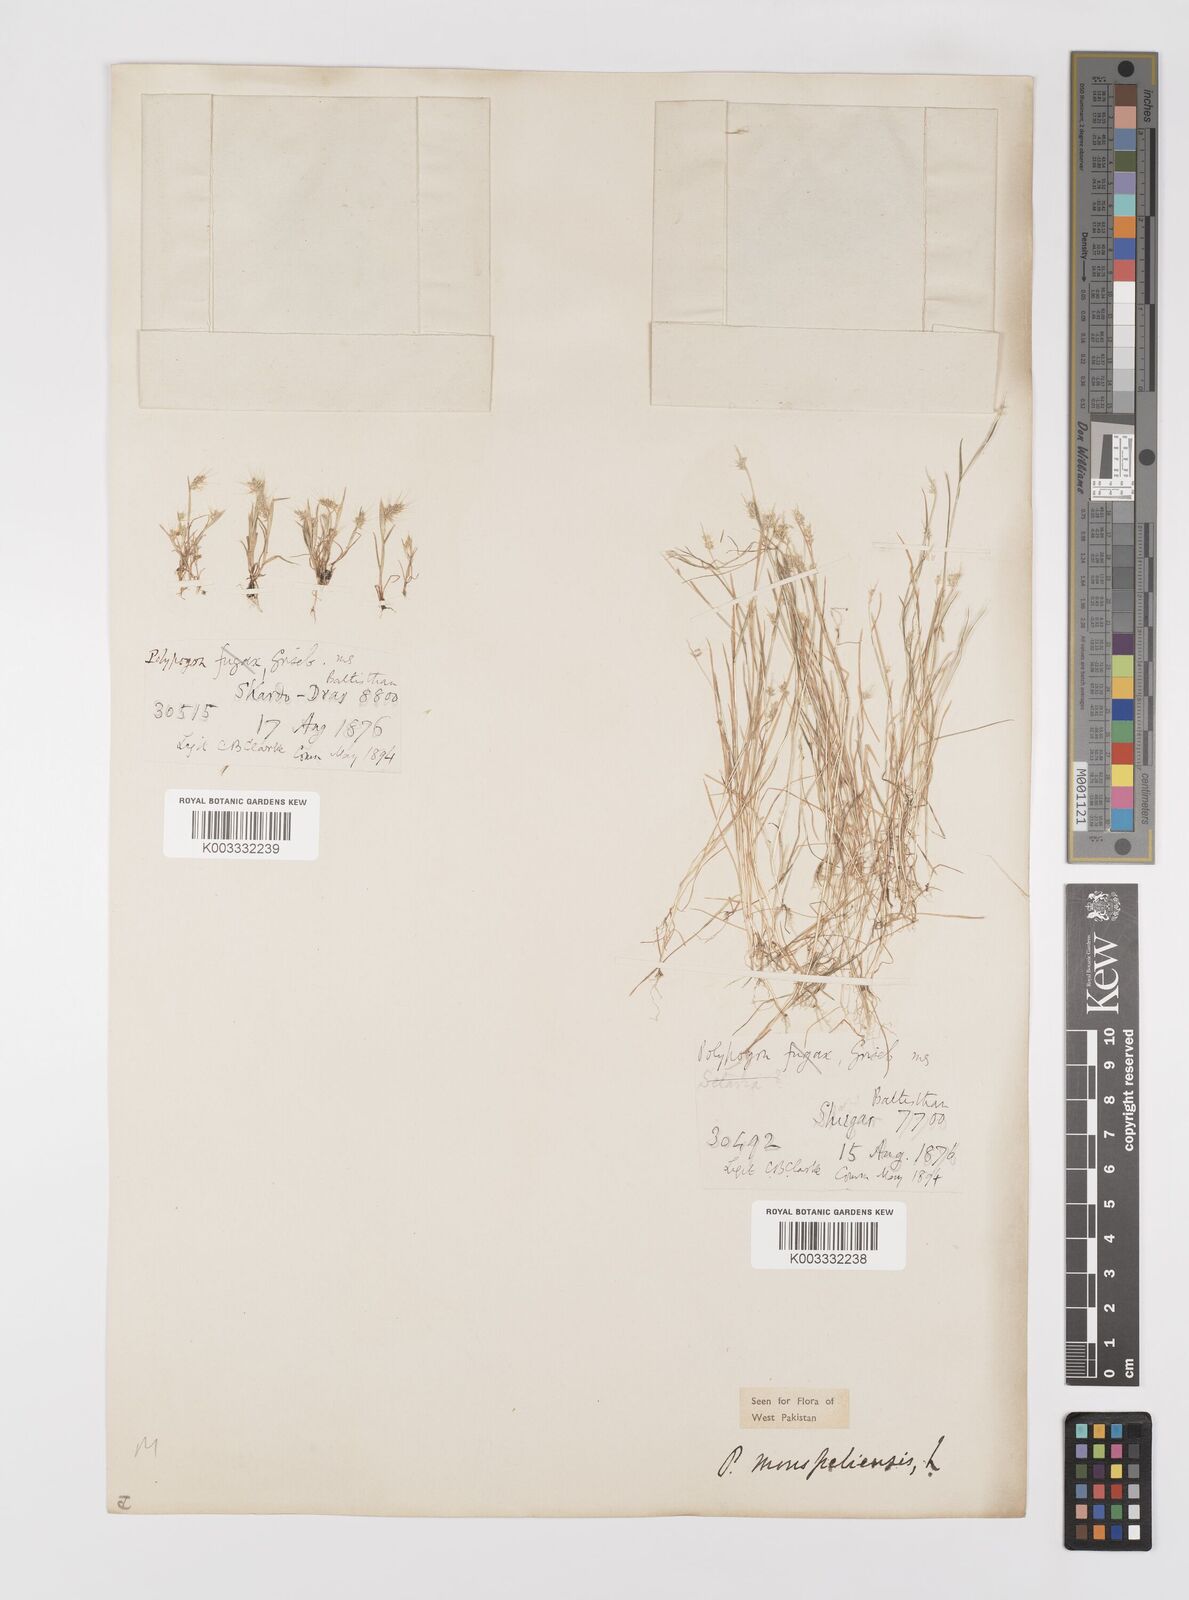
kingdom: Plantae
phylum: Tracheophyta
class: Liliopsida
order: Poales
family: Poaceae
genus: Polypogon
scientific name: Polypogon monspeliensis
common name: Annual rabbitsfoot grass
